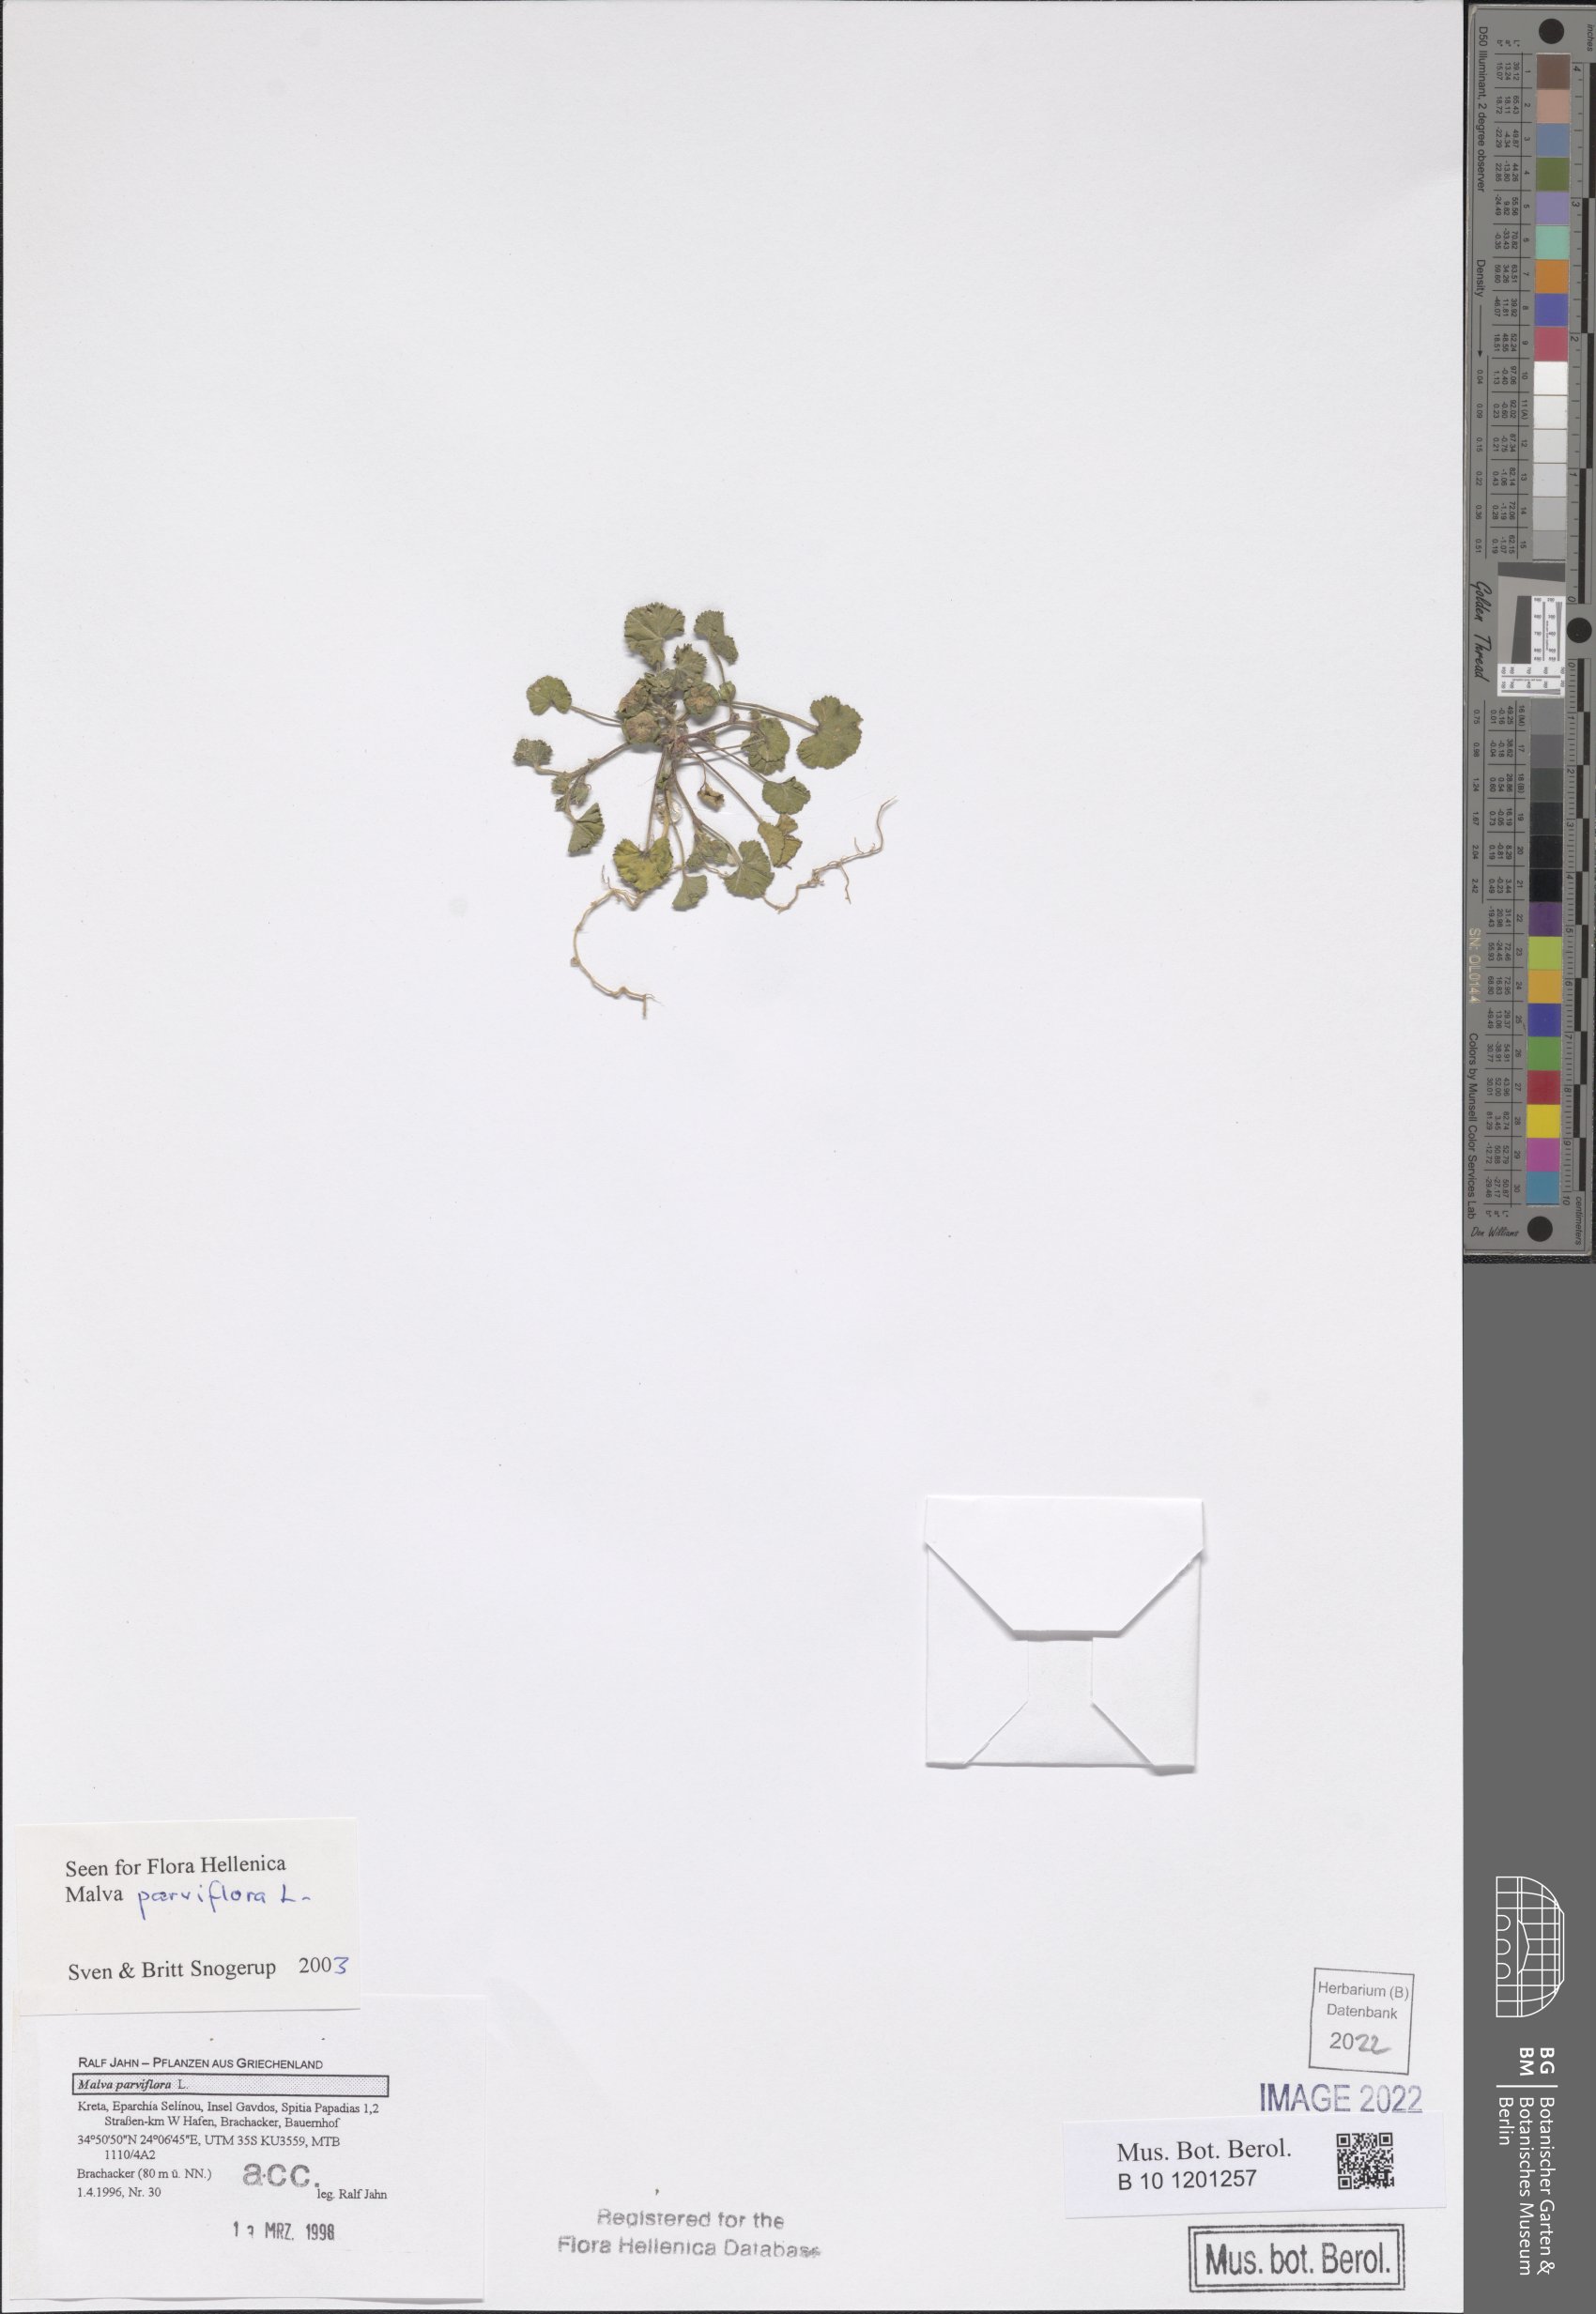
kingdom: Plantae
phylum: Tracheophyta
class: Magnoliopsida
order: Malvales
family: Malvaceae
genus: Malva
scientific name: Malva parviflora
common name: Least mallow
